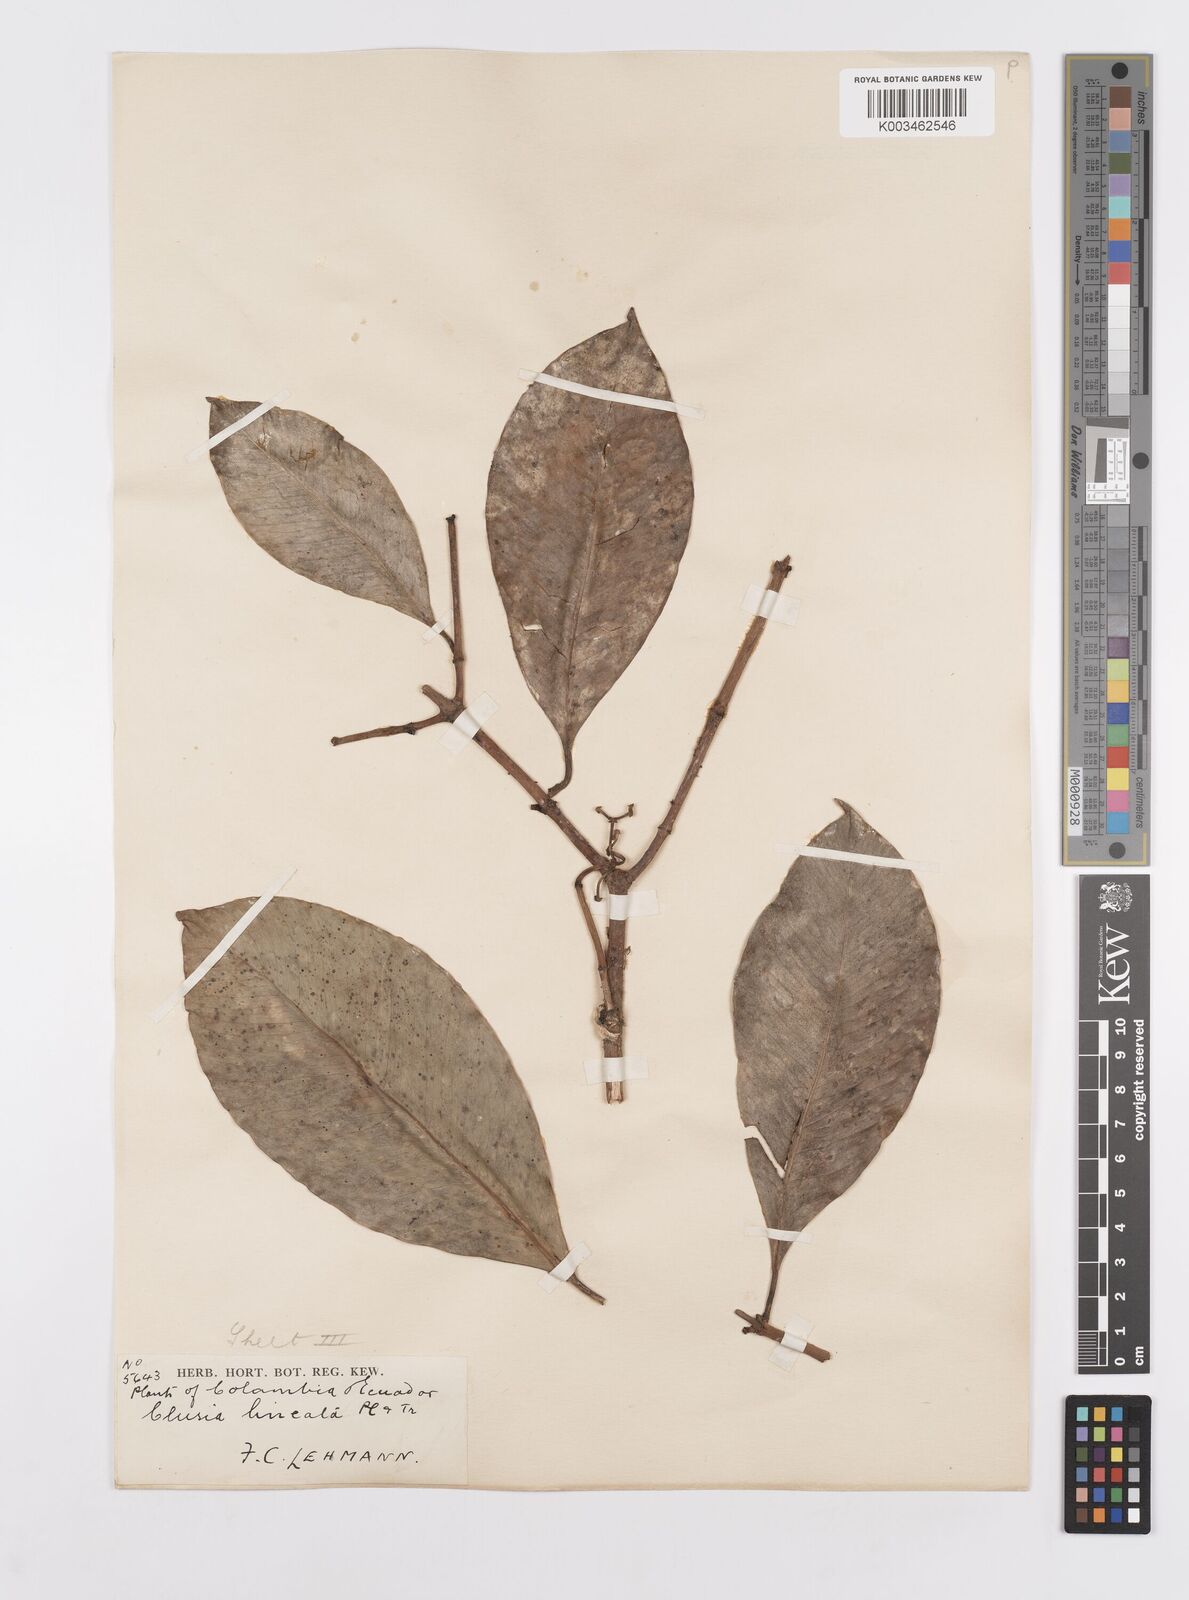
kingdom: Plantae
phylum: Tracheophyta
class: Magnoliopsida
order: Malpighiales
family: Clusiaceae
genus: Clusia
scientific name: Clusia lineata
